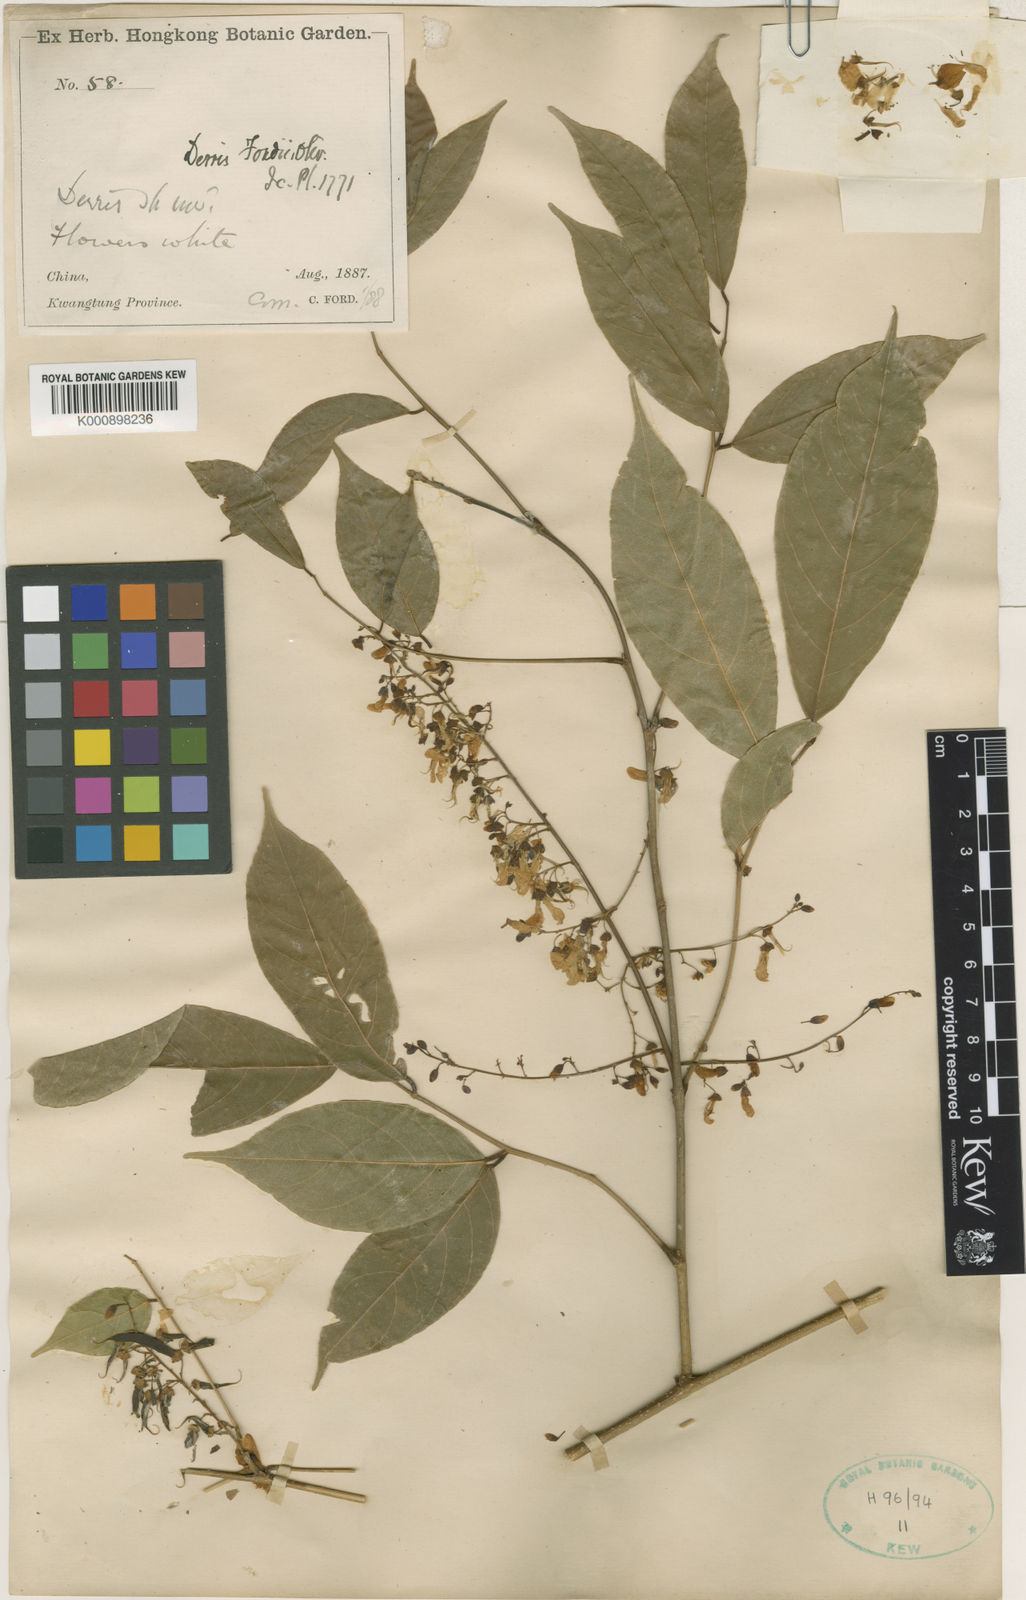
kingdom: Plantae
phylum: Tracheophyta
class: Magnoliopsida
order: Fabales
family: Fabaceae
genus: Derris
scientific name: Derris fordii
